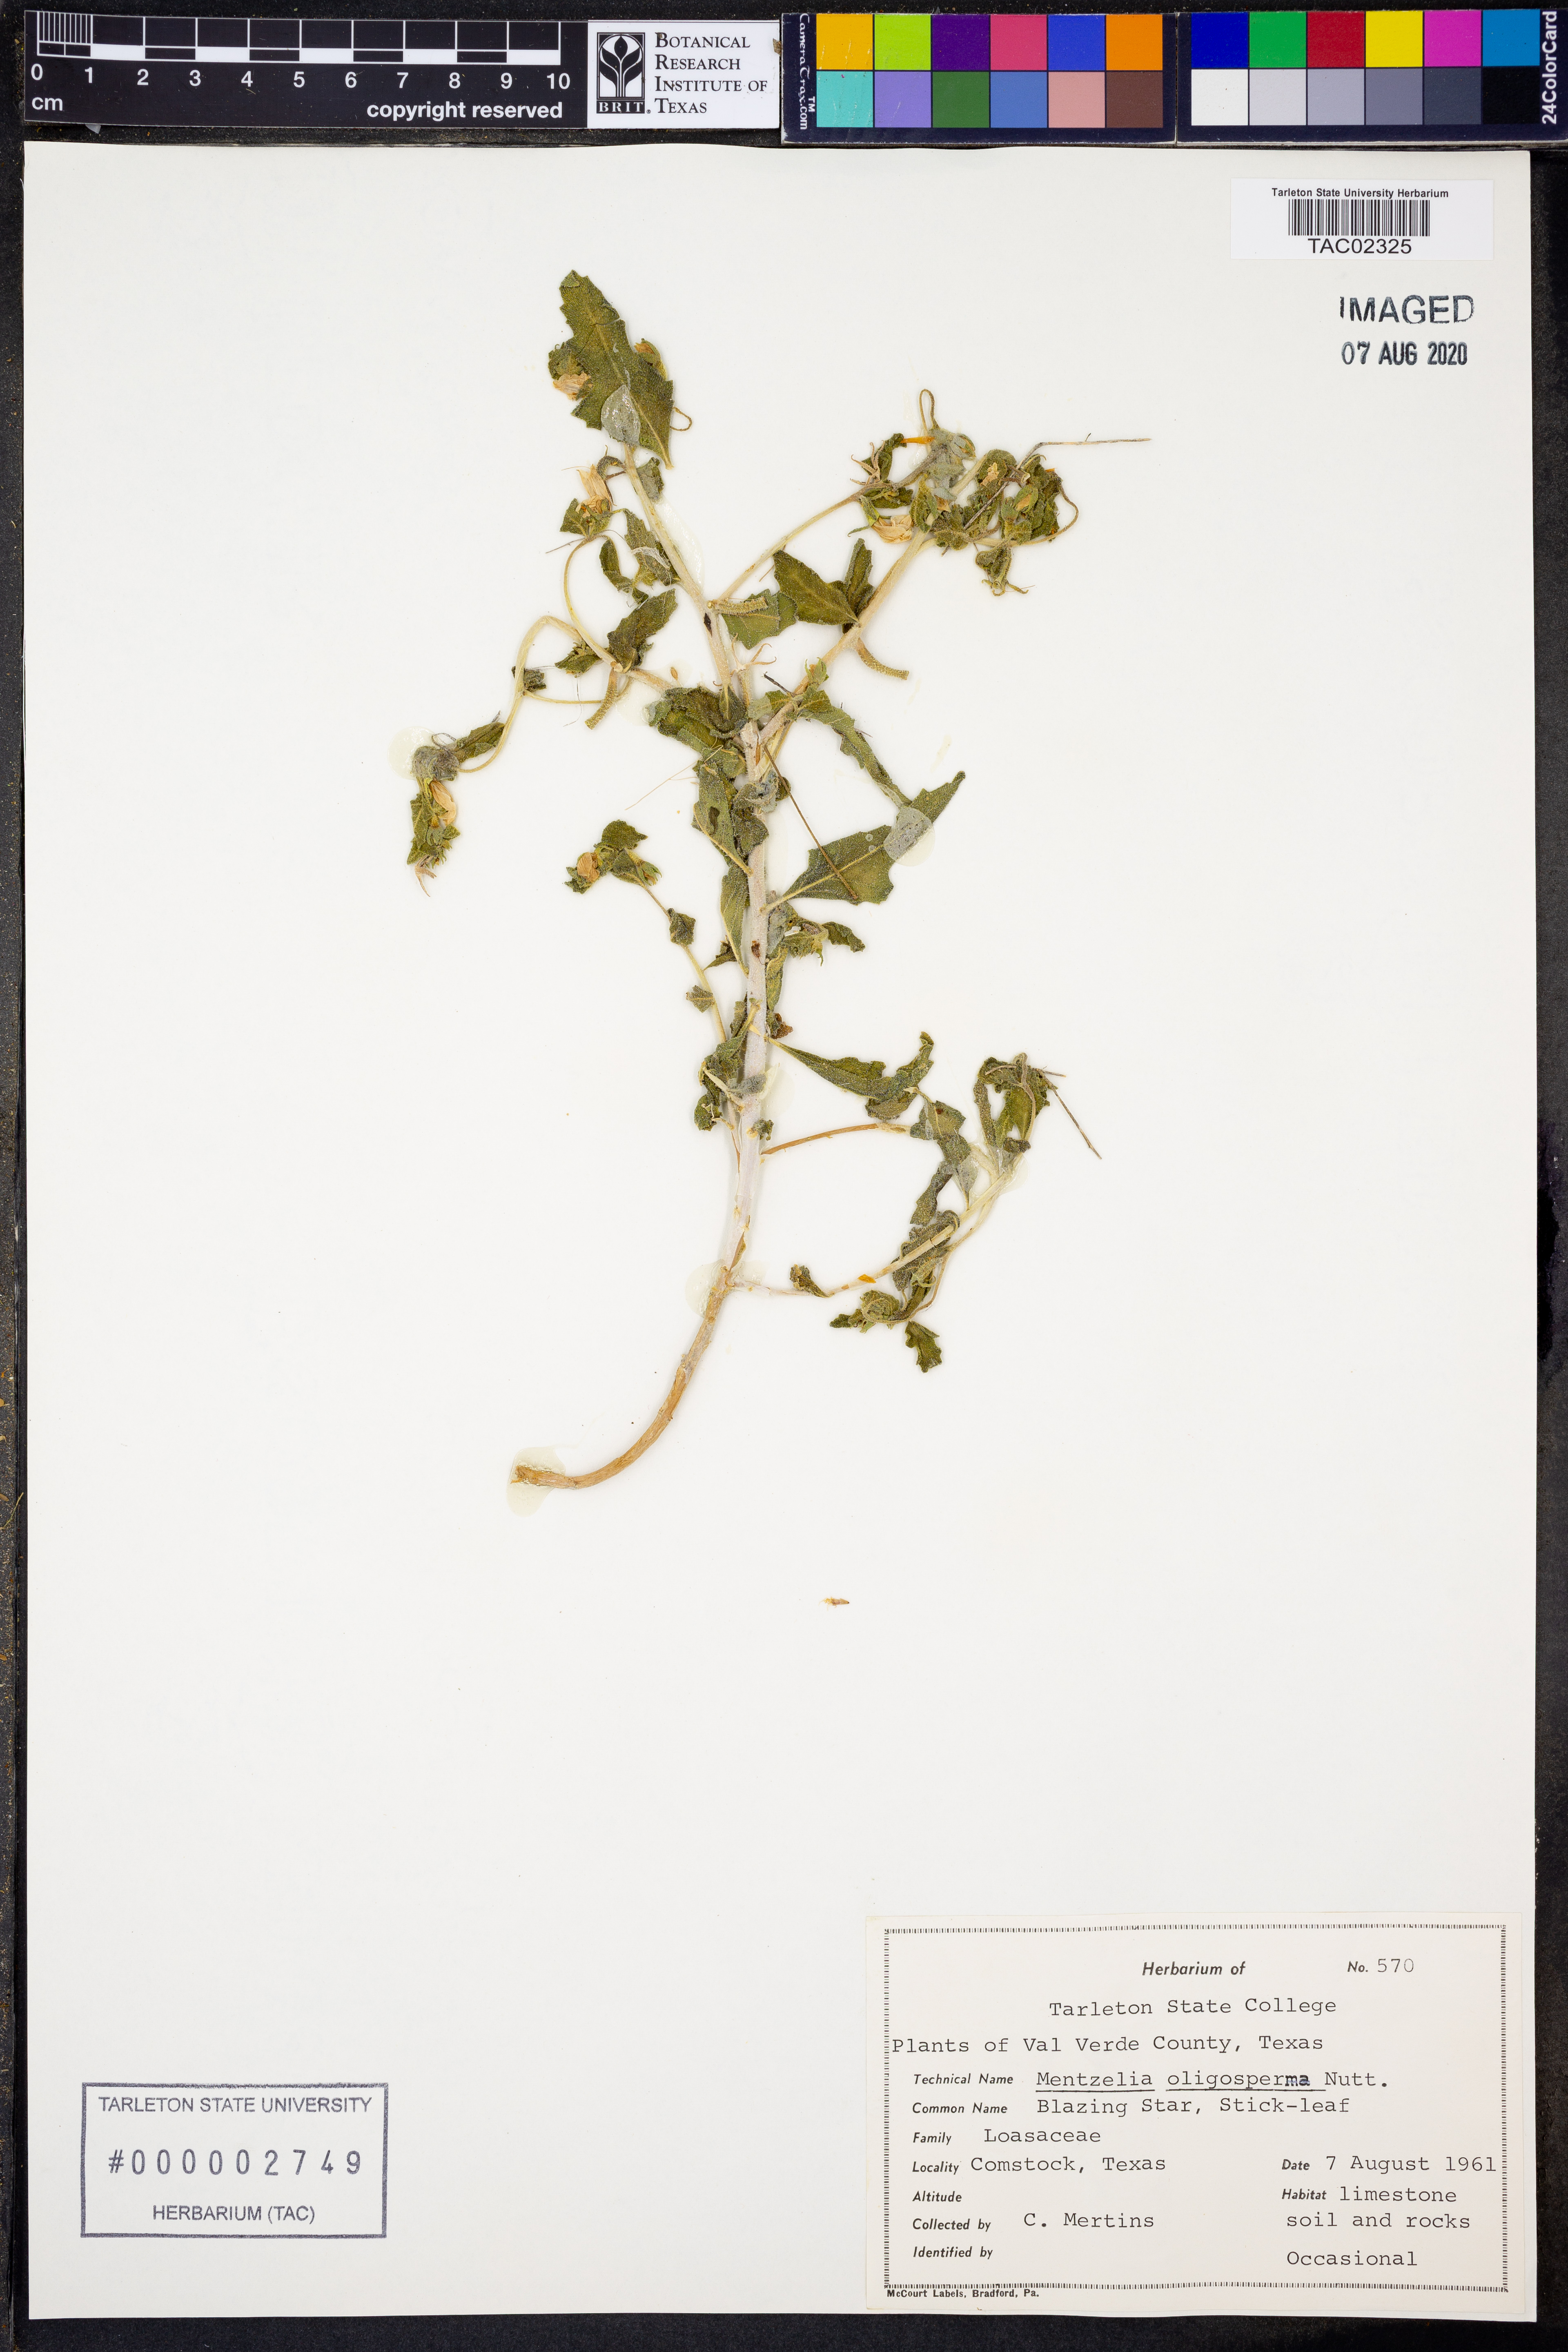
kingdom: Plantae
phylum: Tracheophyta
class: Magnoliopsida
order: Cornales
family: Loasaceae
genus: Mentzelia
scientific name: Mentzelia oligosperma
